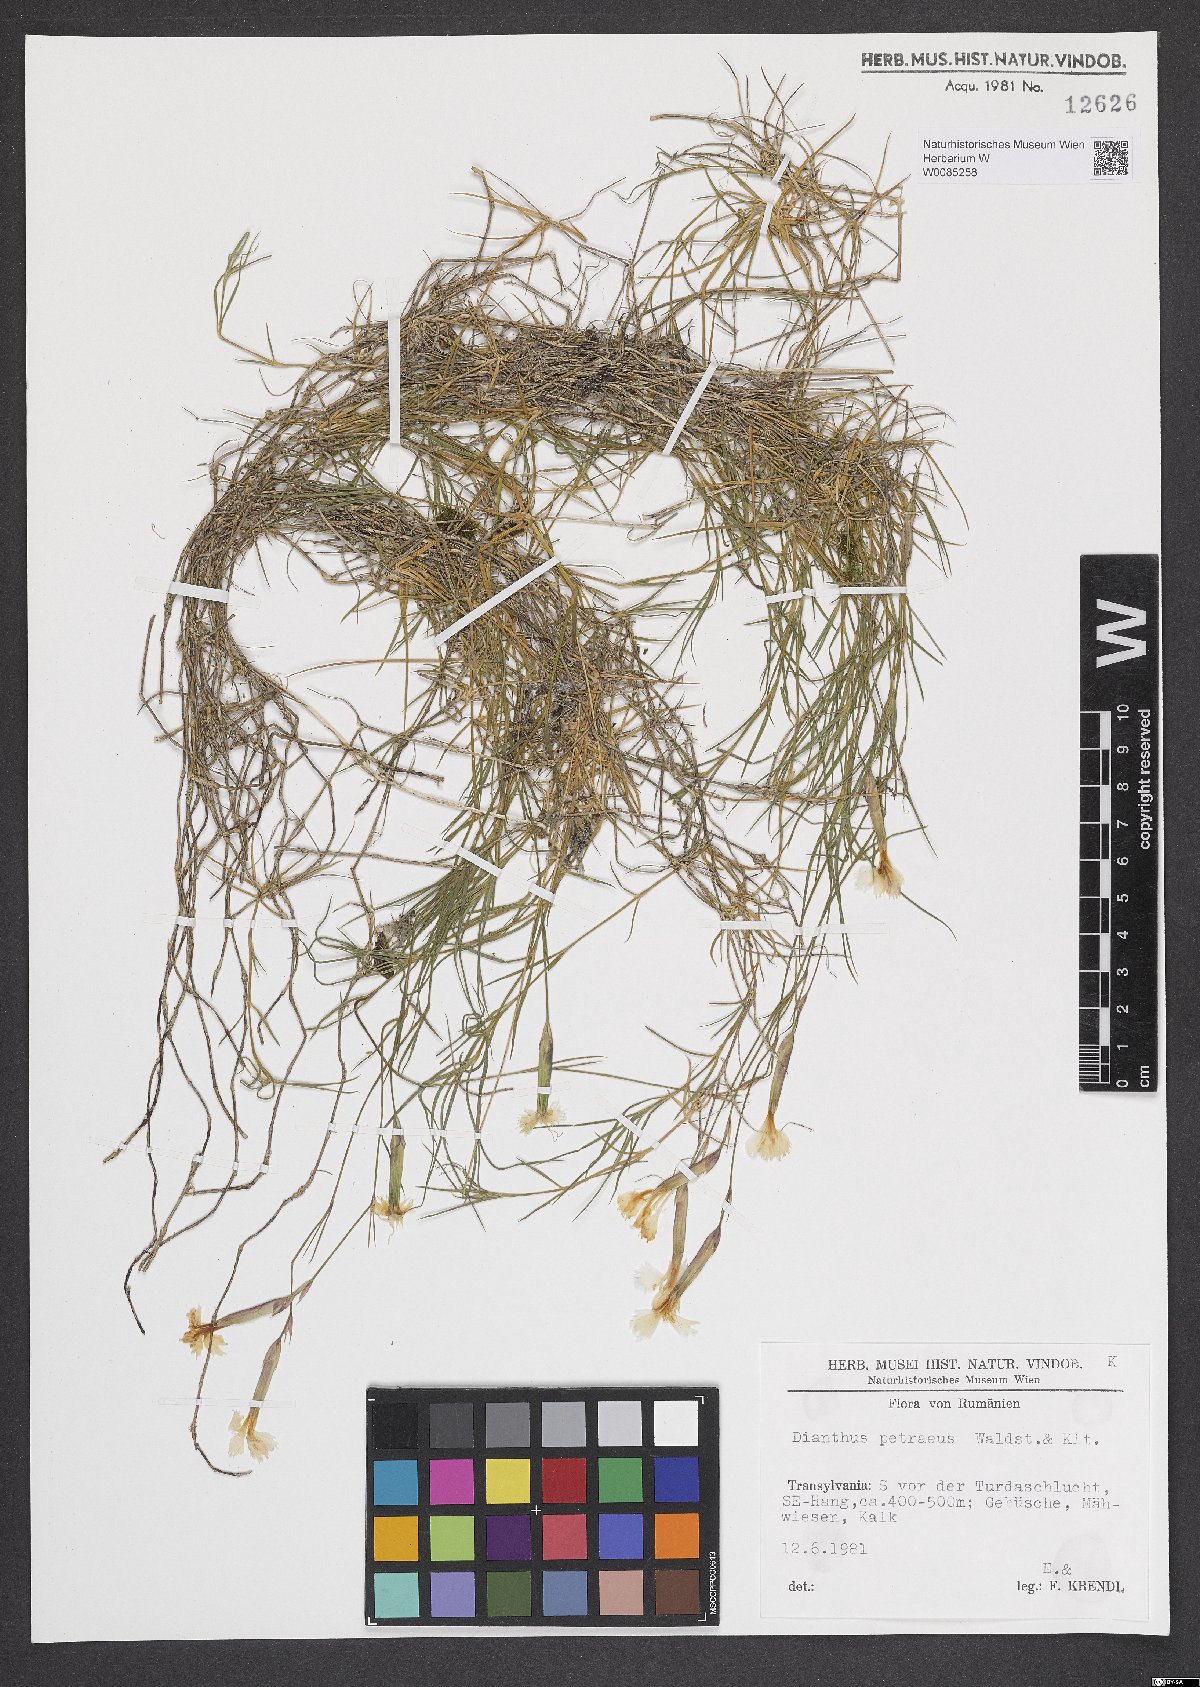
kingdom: Plantae
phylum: Tracheophyta
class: Magnoliopsida
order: Caryophyllales
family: Caryophyllaceae
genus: Dianthus
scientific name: Dianthus petraeus
